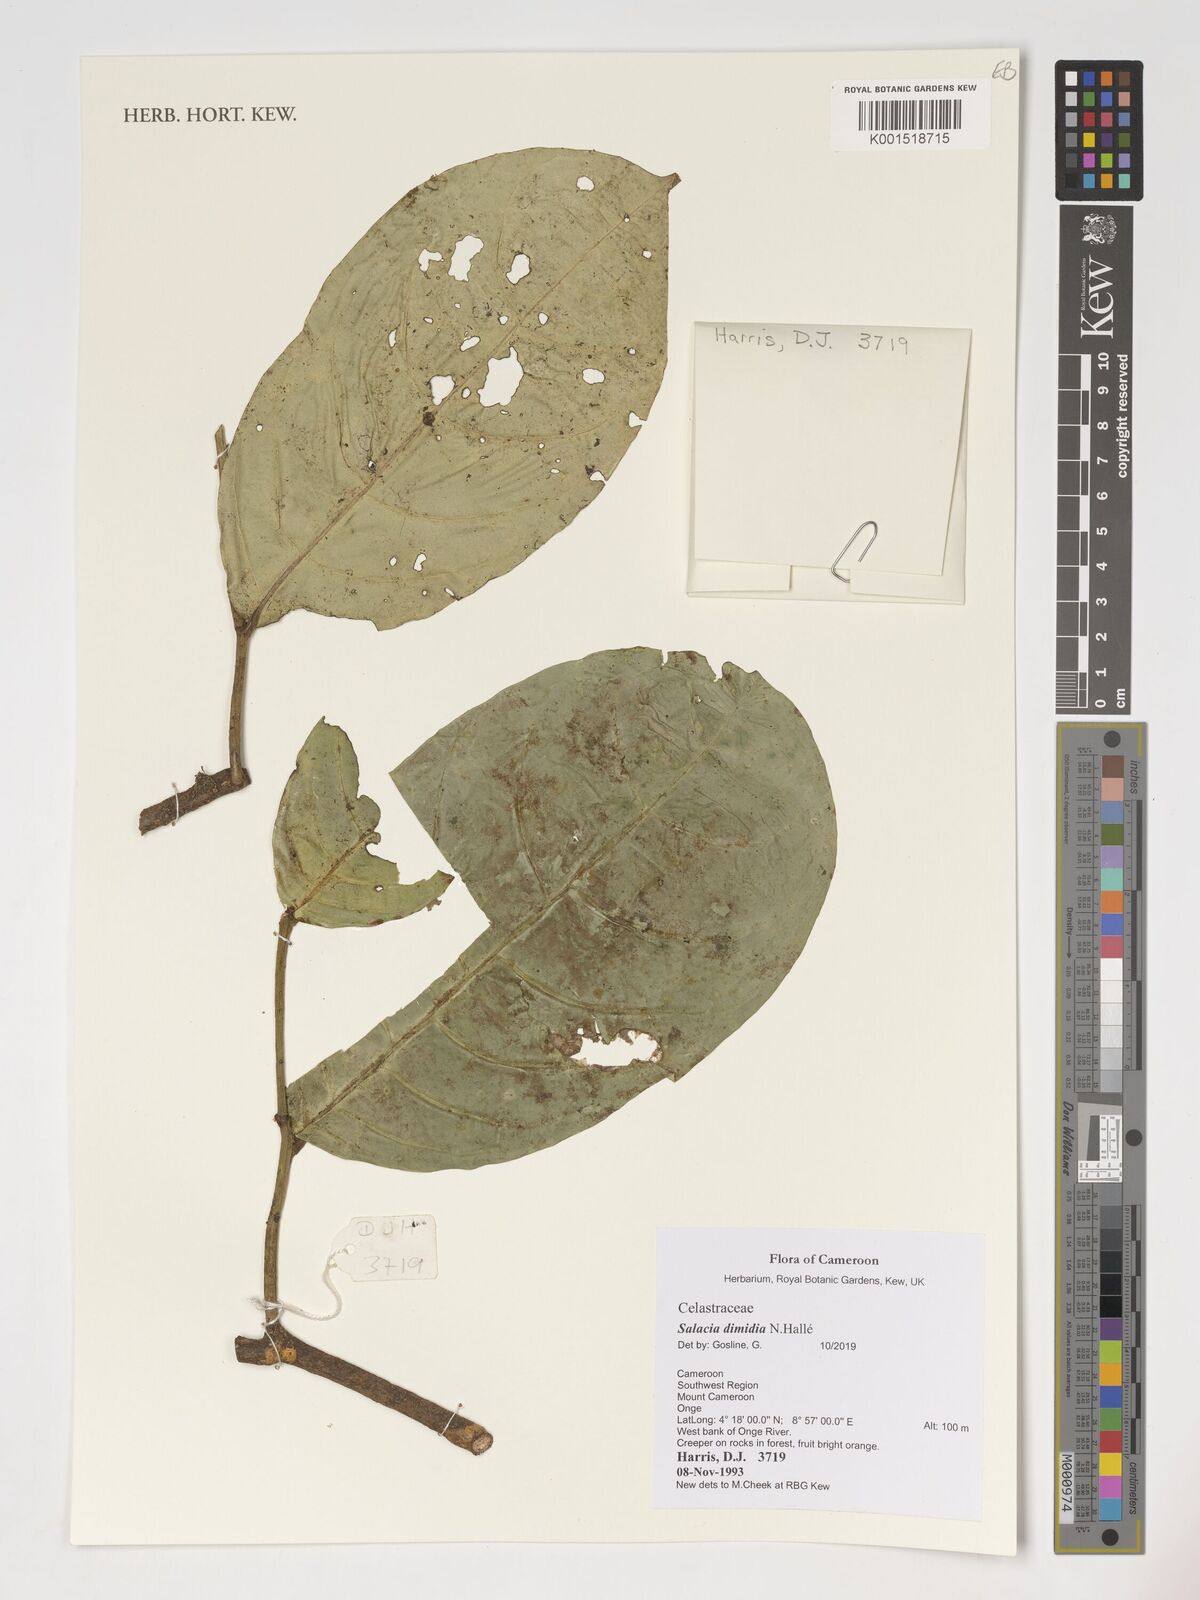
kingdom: Plantae
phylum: Tracheophyta
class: Magnoliopsida
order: Celastrales
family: Celastraceae
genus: Salacia
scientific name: Salacia dimidia
